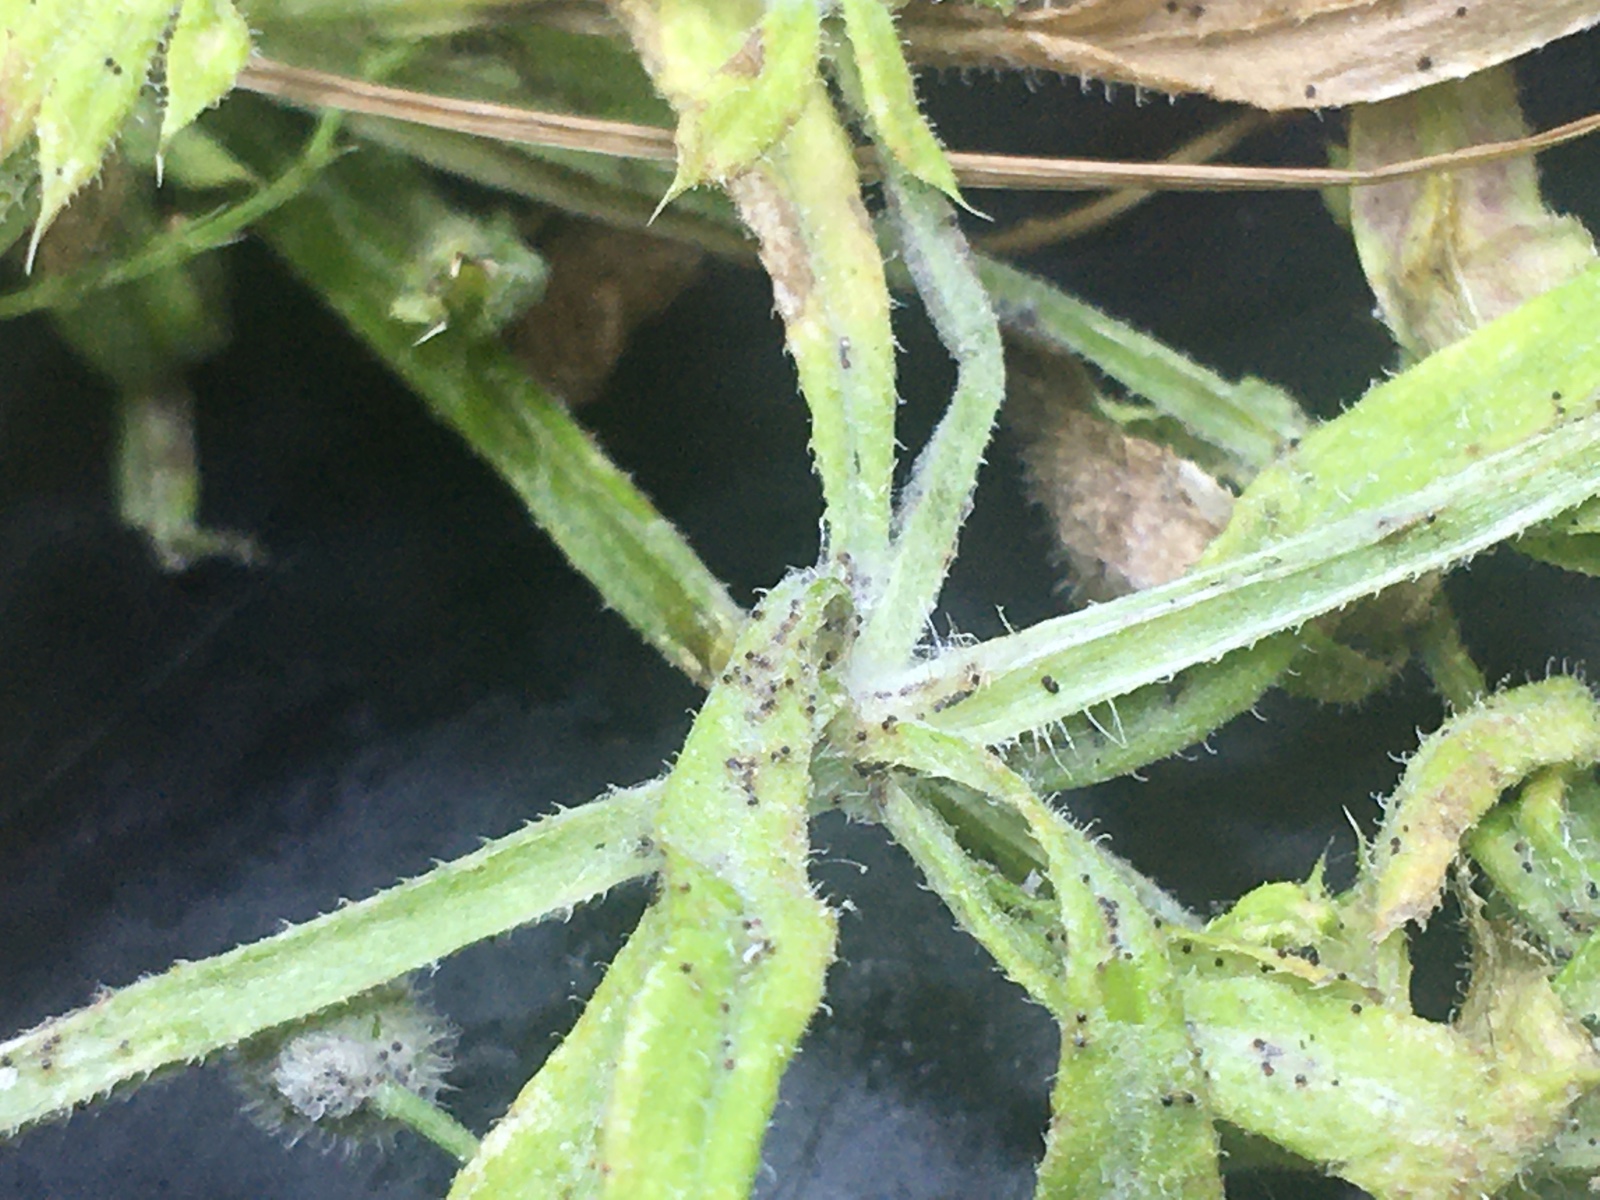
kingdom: Fungi
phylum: Ascomycota
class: Leotiomycetes
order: Helotiales
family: Erysiphaceae
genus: Neoerysiphe
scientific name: Neoerysiphe galii
